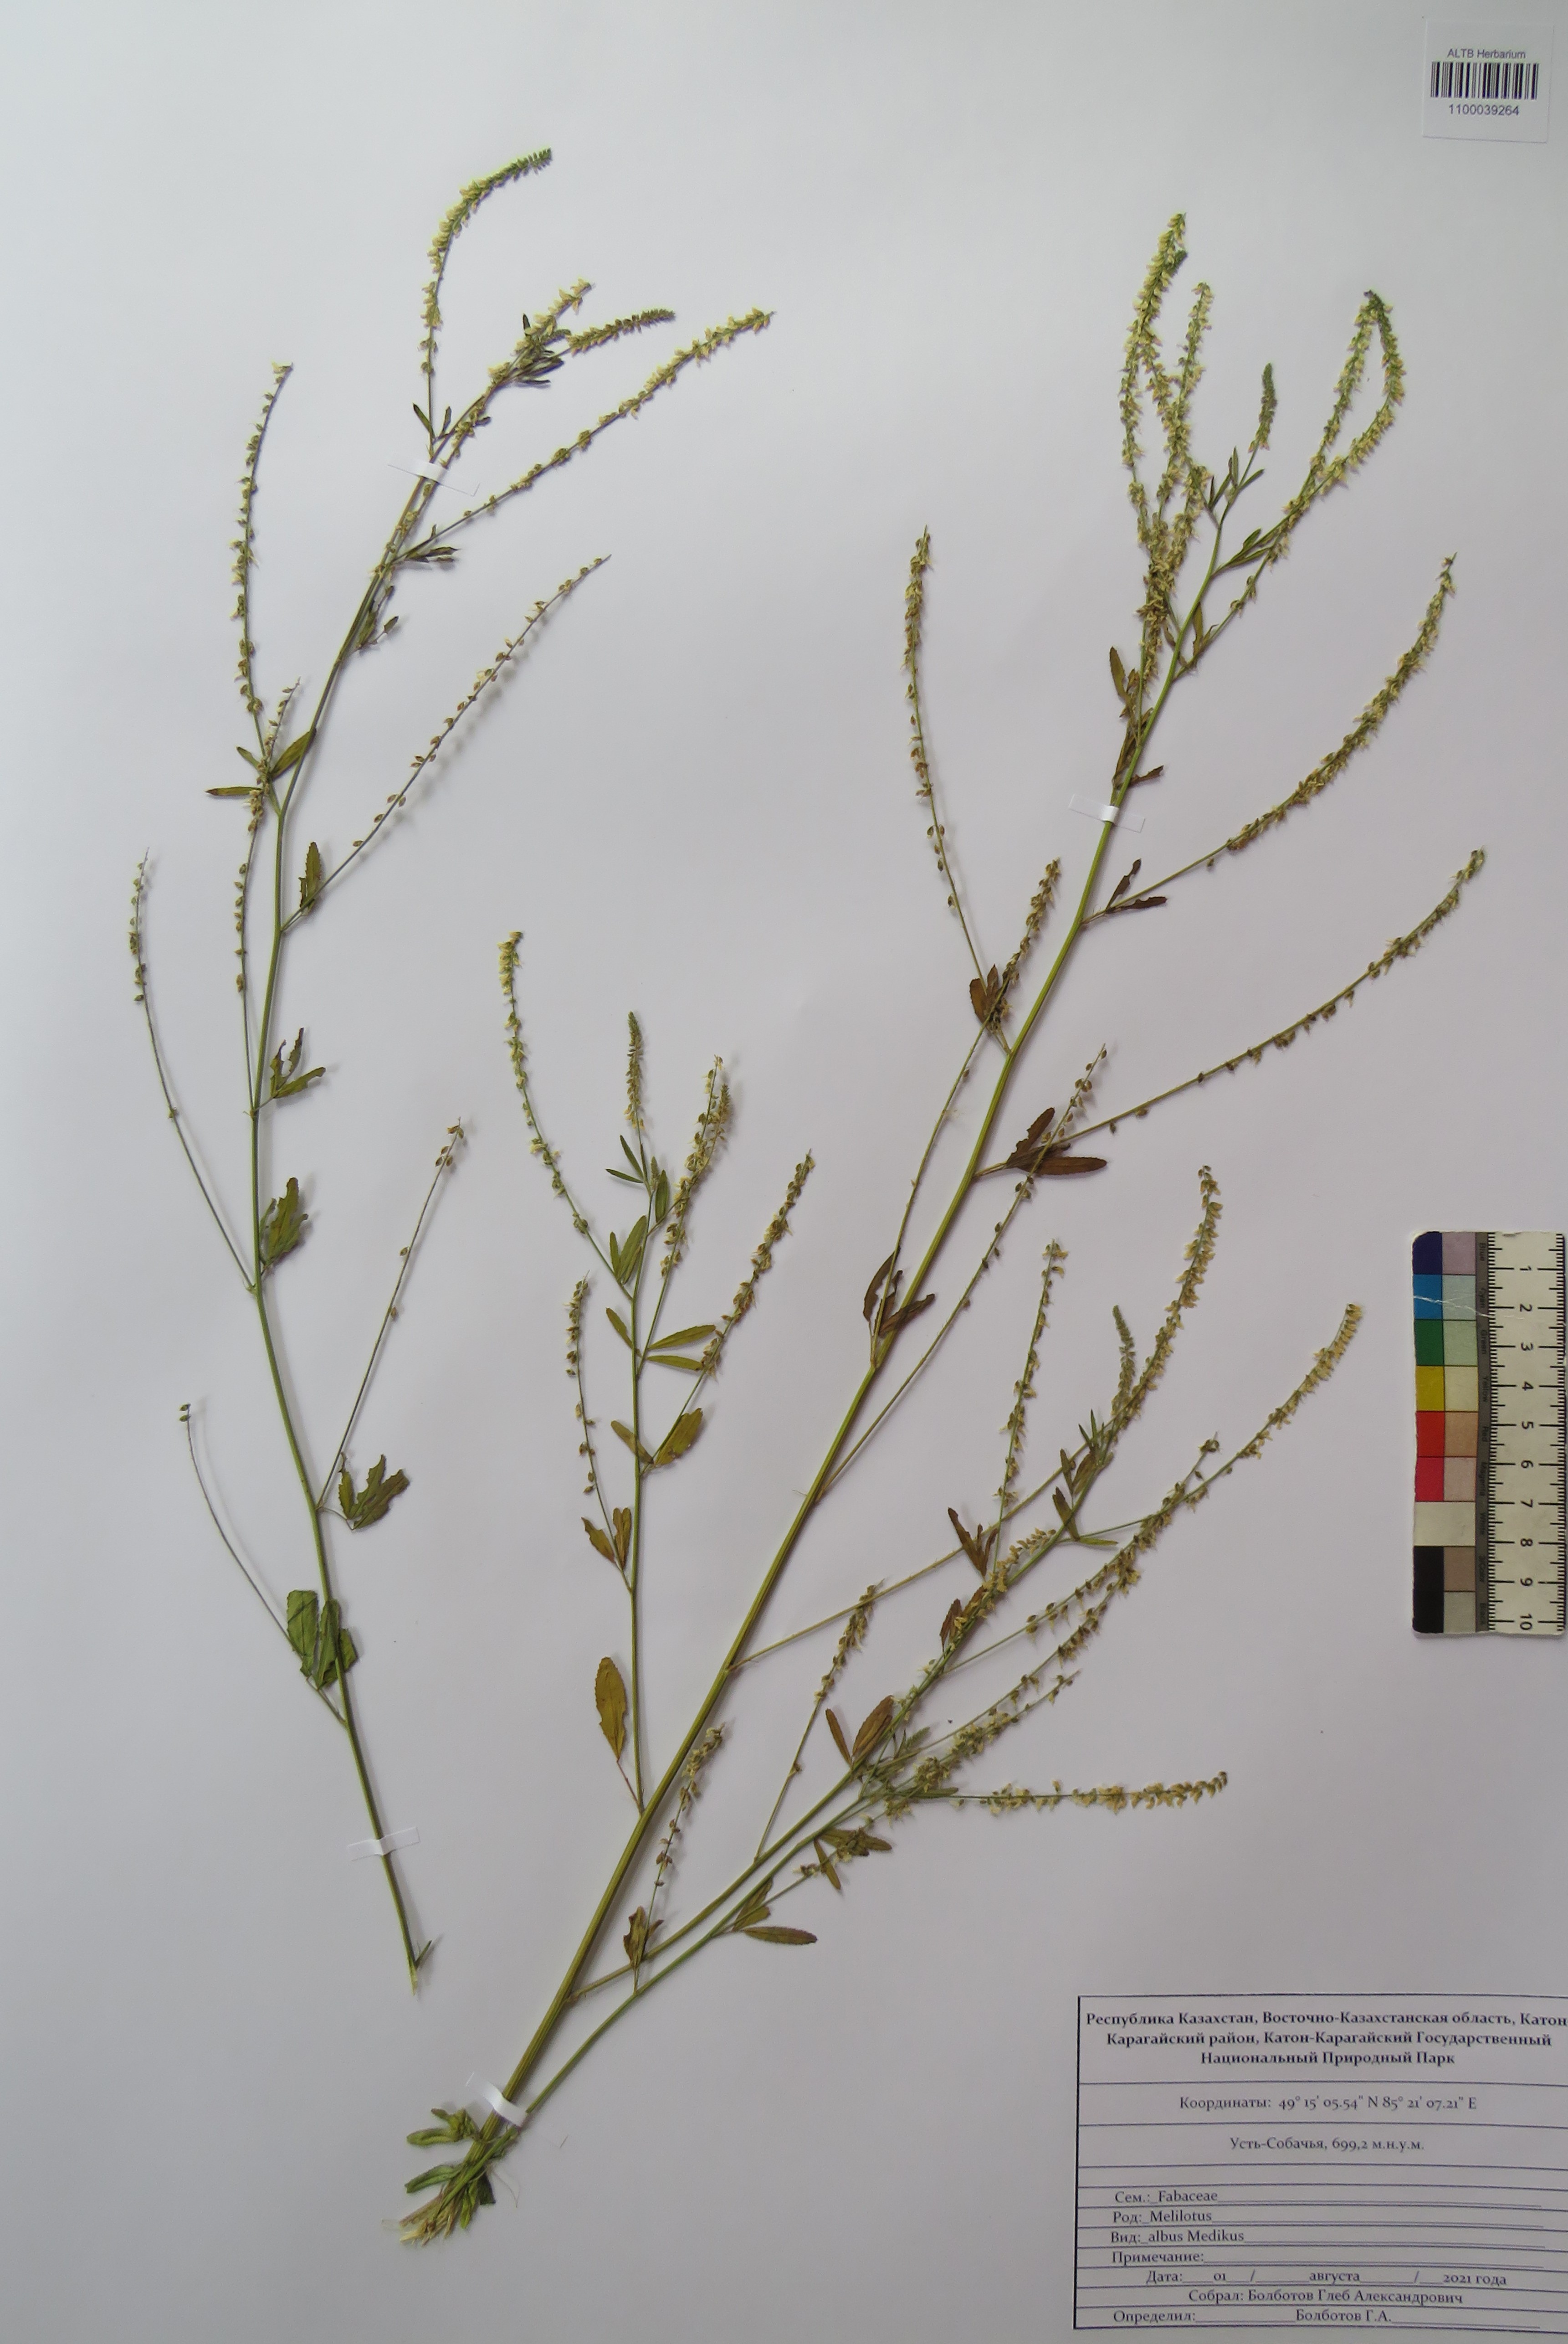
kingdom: Plantae
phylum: Tracheophyta
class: Magnoliopsida
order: Fabales
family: Fabaceae
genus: Melilotus
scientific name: Melilotus albus
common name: White melilot
